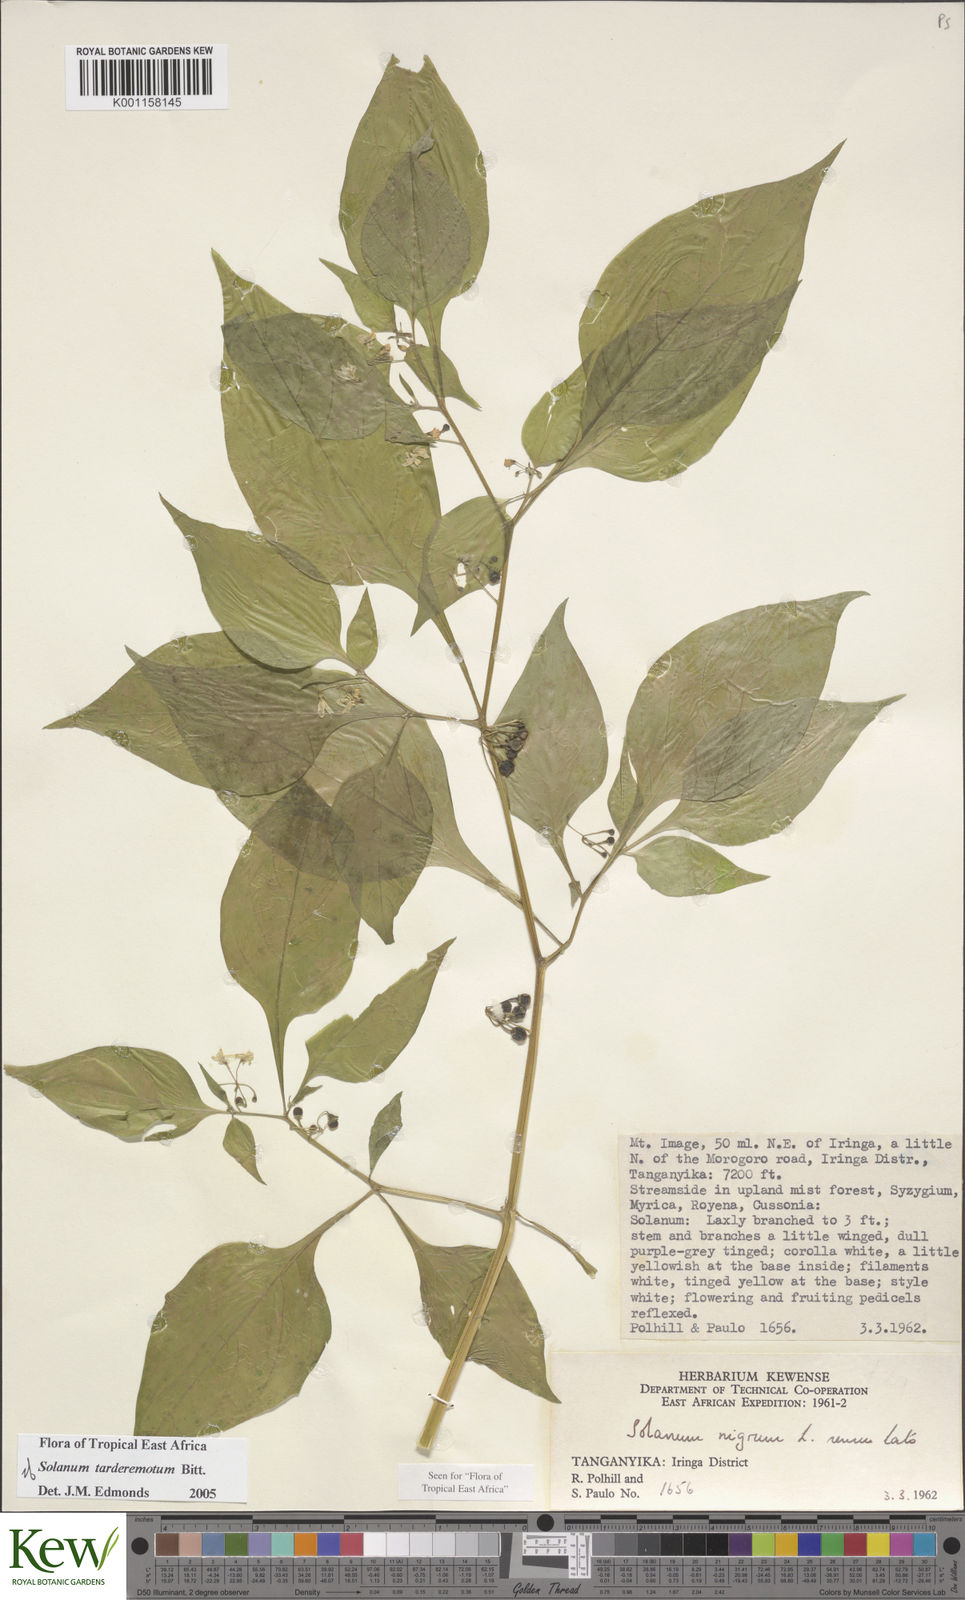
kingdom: Plantae
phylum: Tracheophyta
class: Magnoliopsida
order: Solanales
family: Solanaceae
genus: Solanum
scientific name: Solanum tarderemotum
